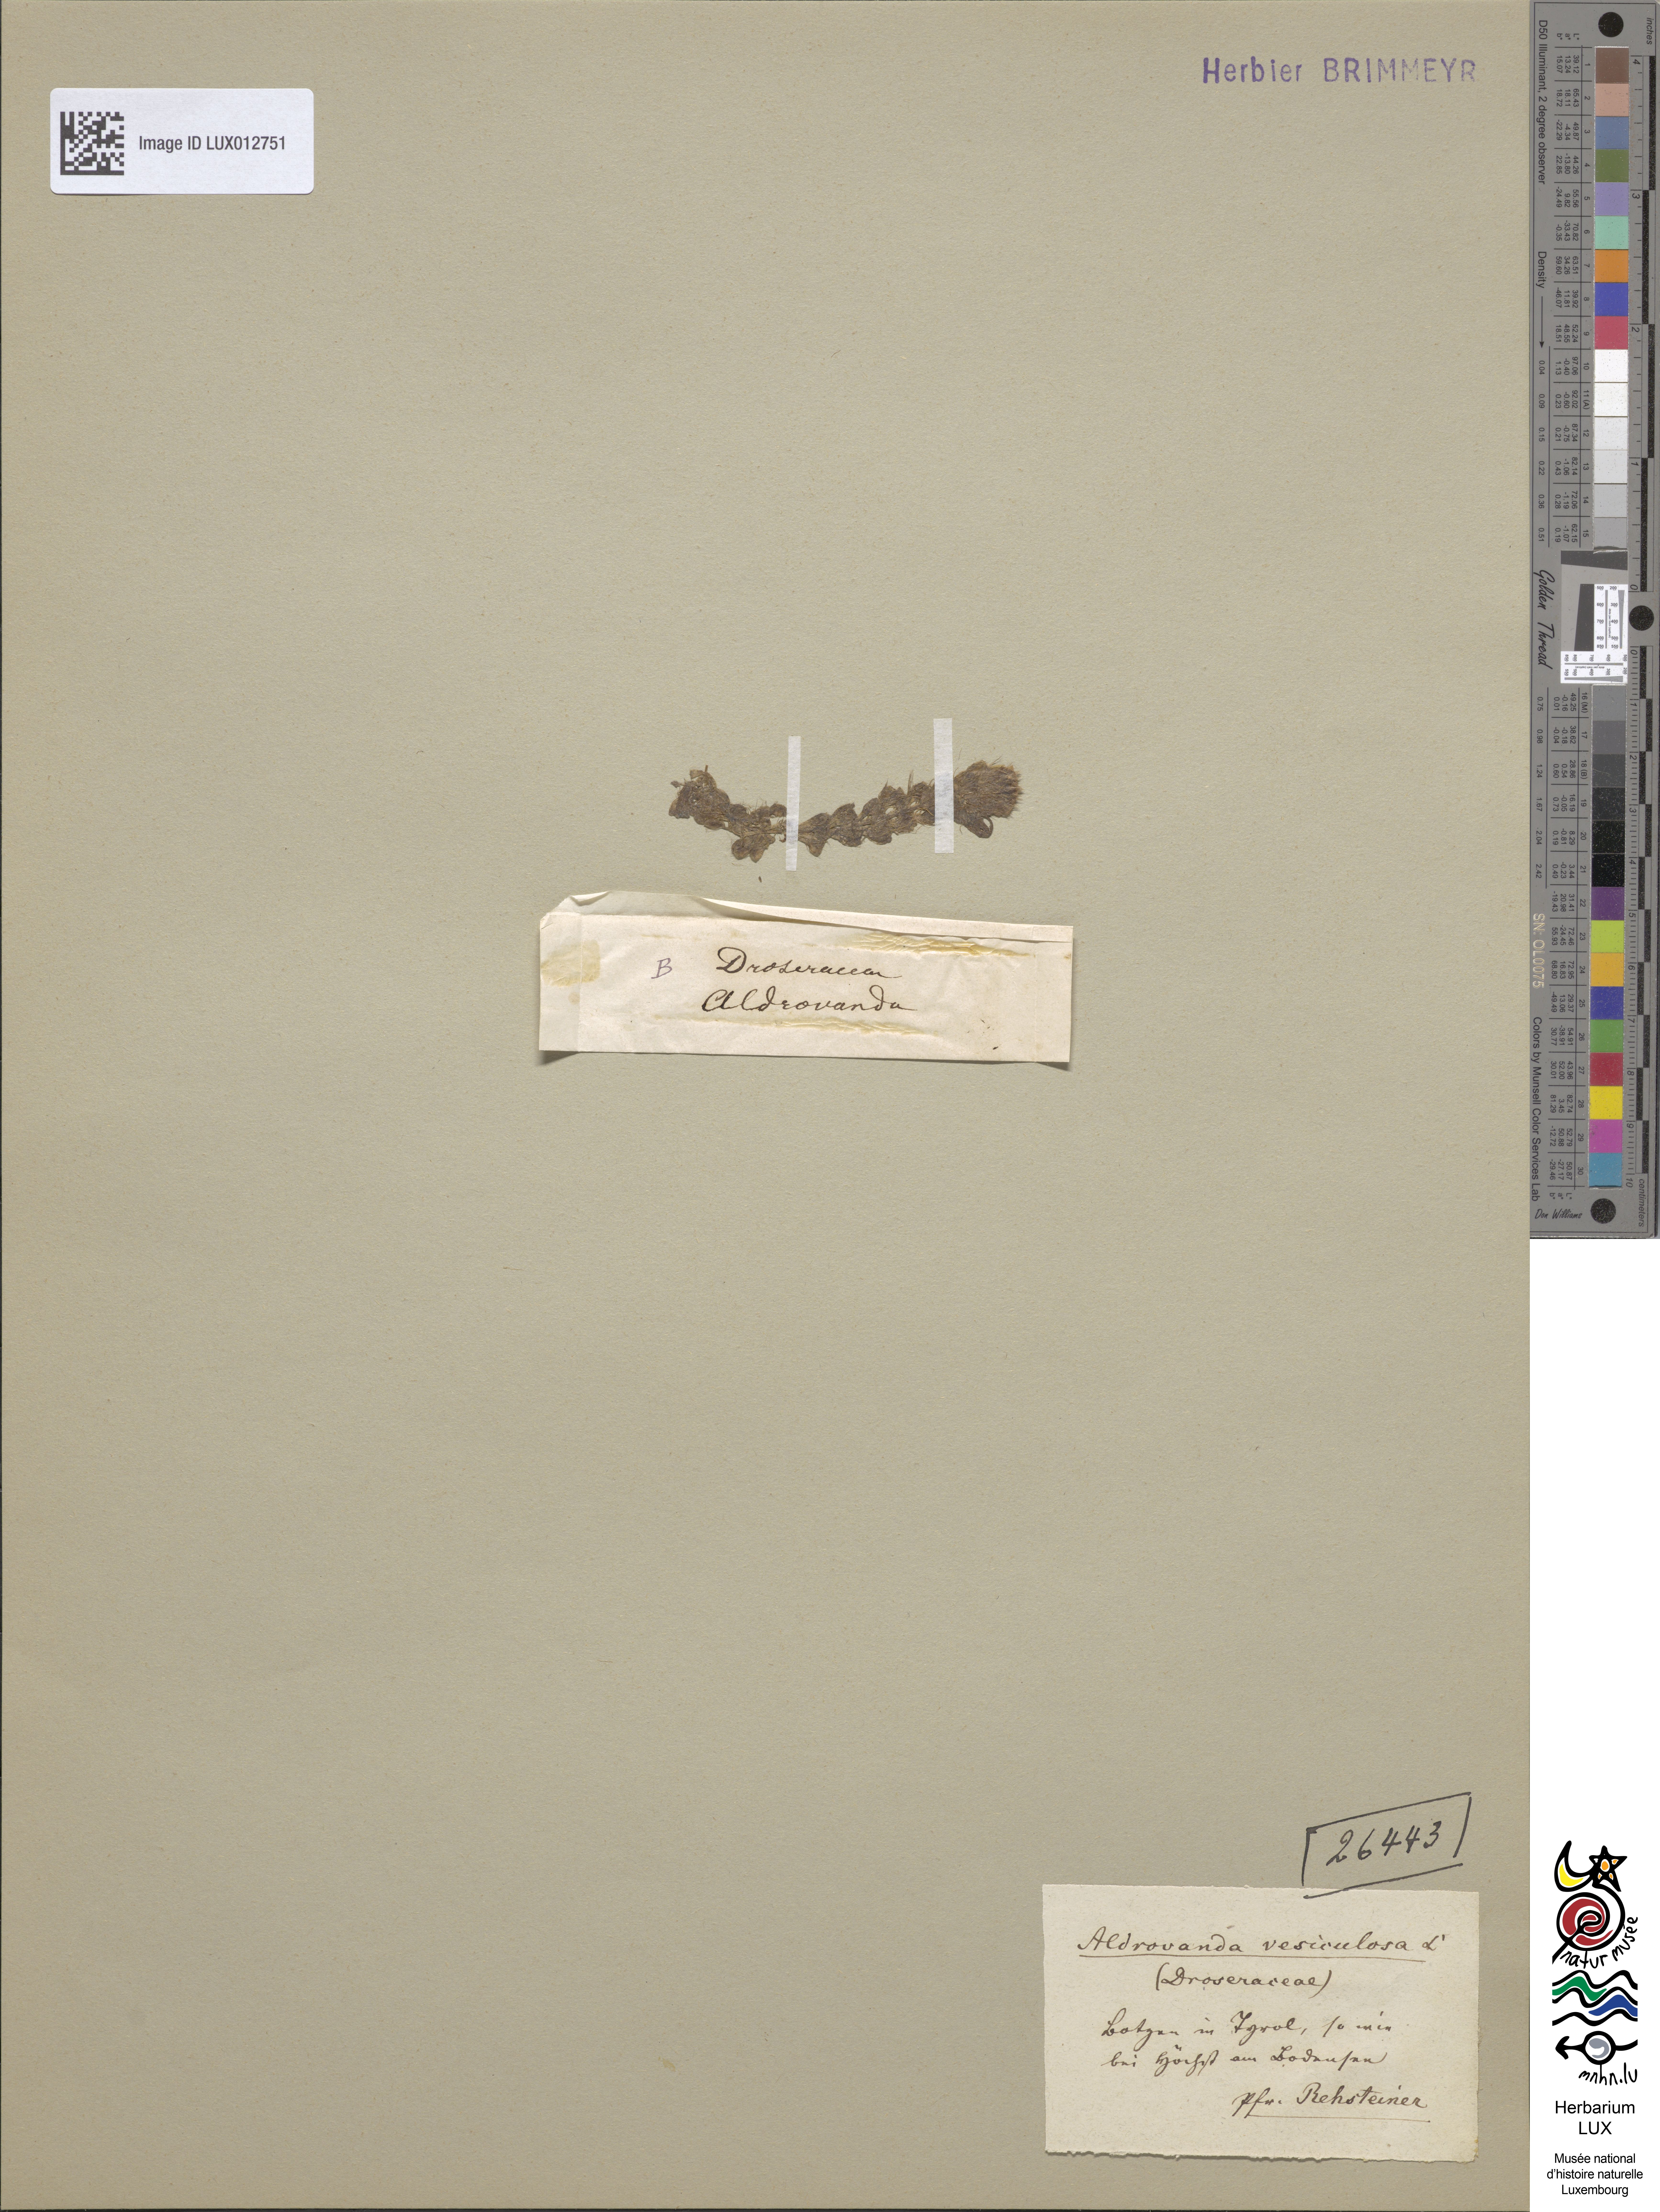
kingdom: Plantae
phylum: Tracheophyta
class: Magnoliopsida
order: Caryophyllales
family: Droseraceae
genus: Aldrovanda
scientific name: Aldrovanda vesiculosa
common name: Waterwheel plant
